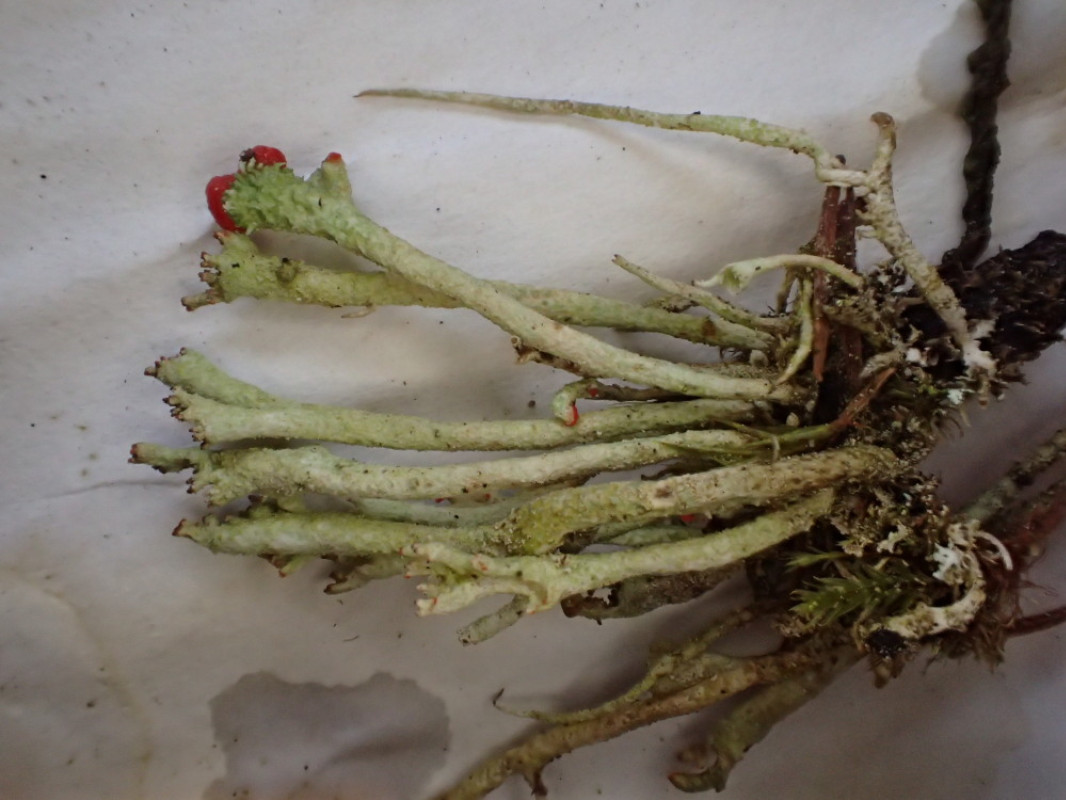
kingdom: Fungi
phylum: Ascomycota
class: Lecanoromycetes
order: Lecanorales
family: Cladoniaceae
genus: Cladonia
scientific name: Cladonia macilenta
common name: indsvunden bægerlav
